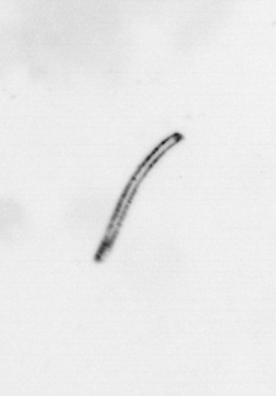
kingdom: Chromista
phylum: Ochrophyta
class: Bacillariophyceae
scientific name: Bacillariophyceae
